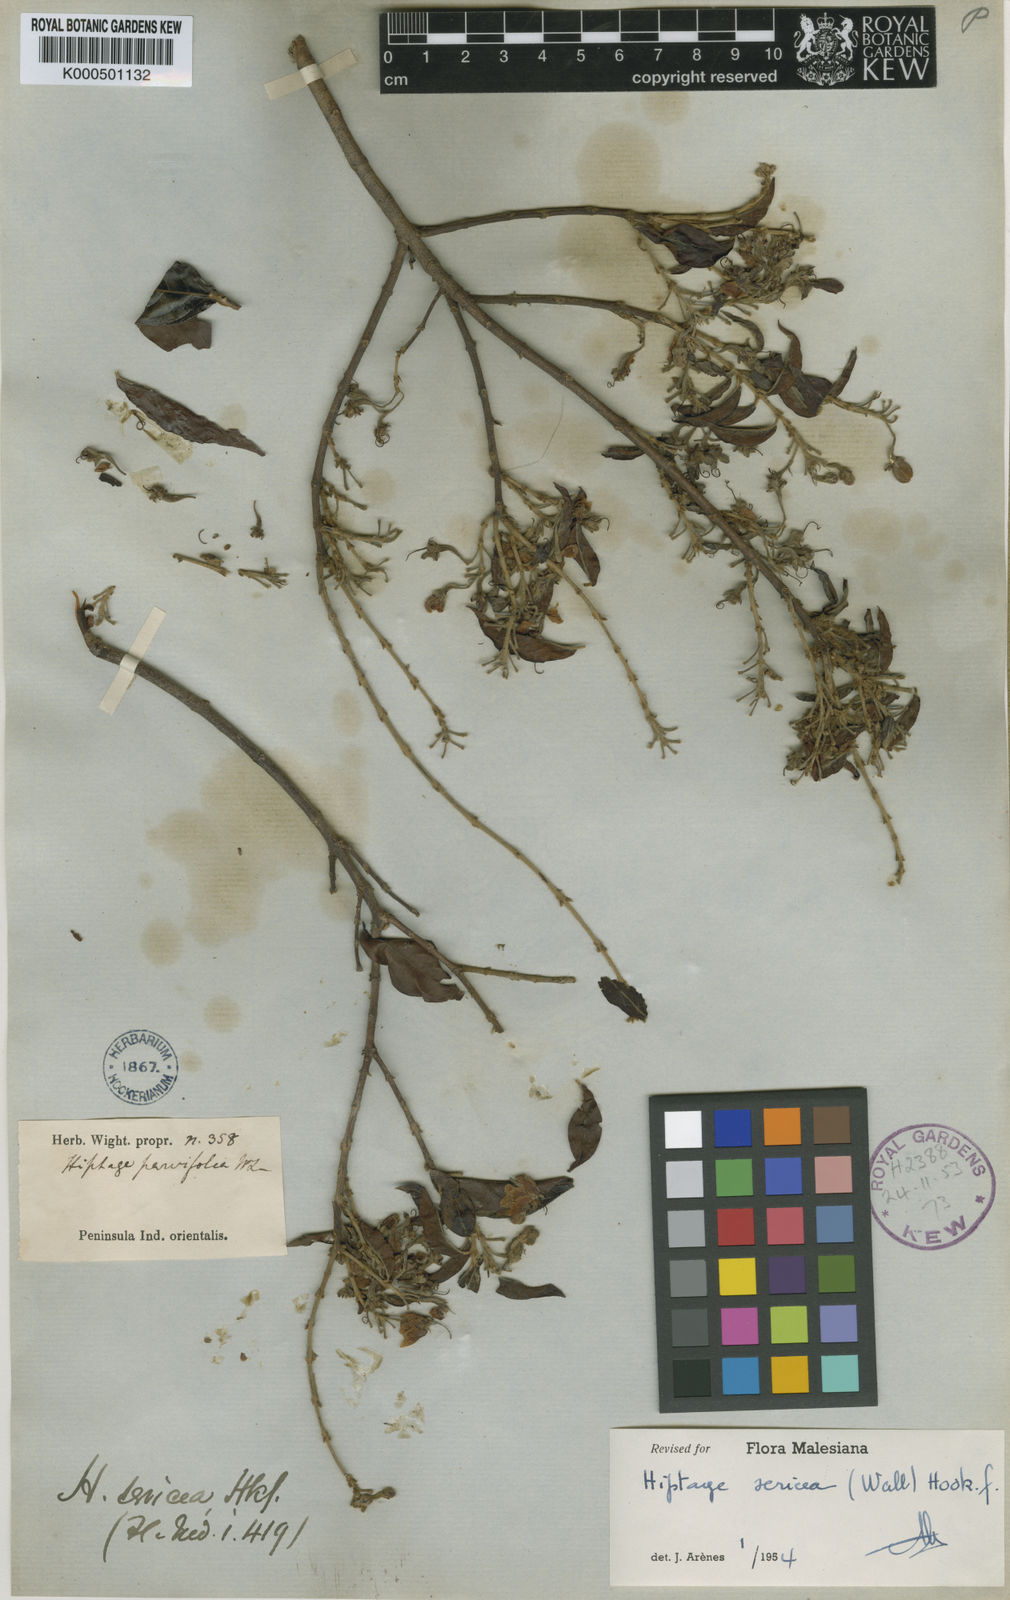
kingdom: Plantae
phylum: Tracheophyta
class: Magnoliopsida
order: Malpighiales
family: Malpighiaceae
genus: Hiptage
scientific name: Hiptage sericea
